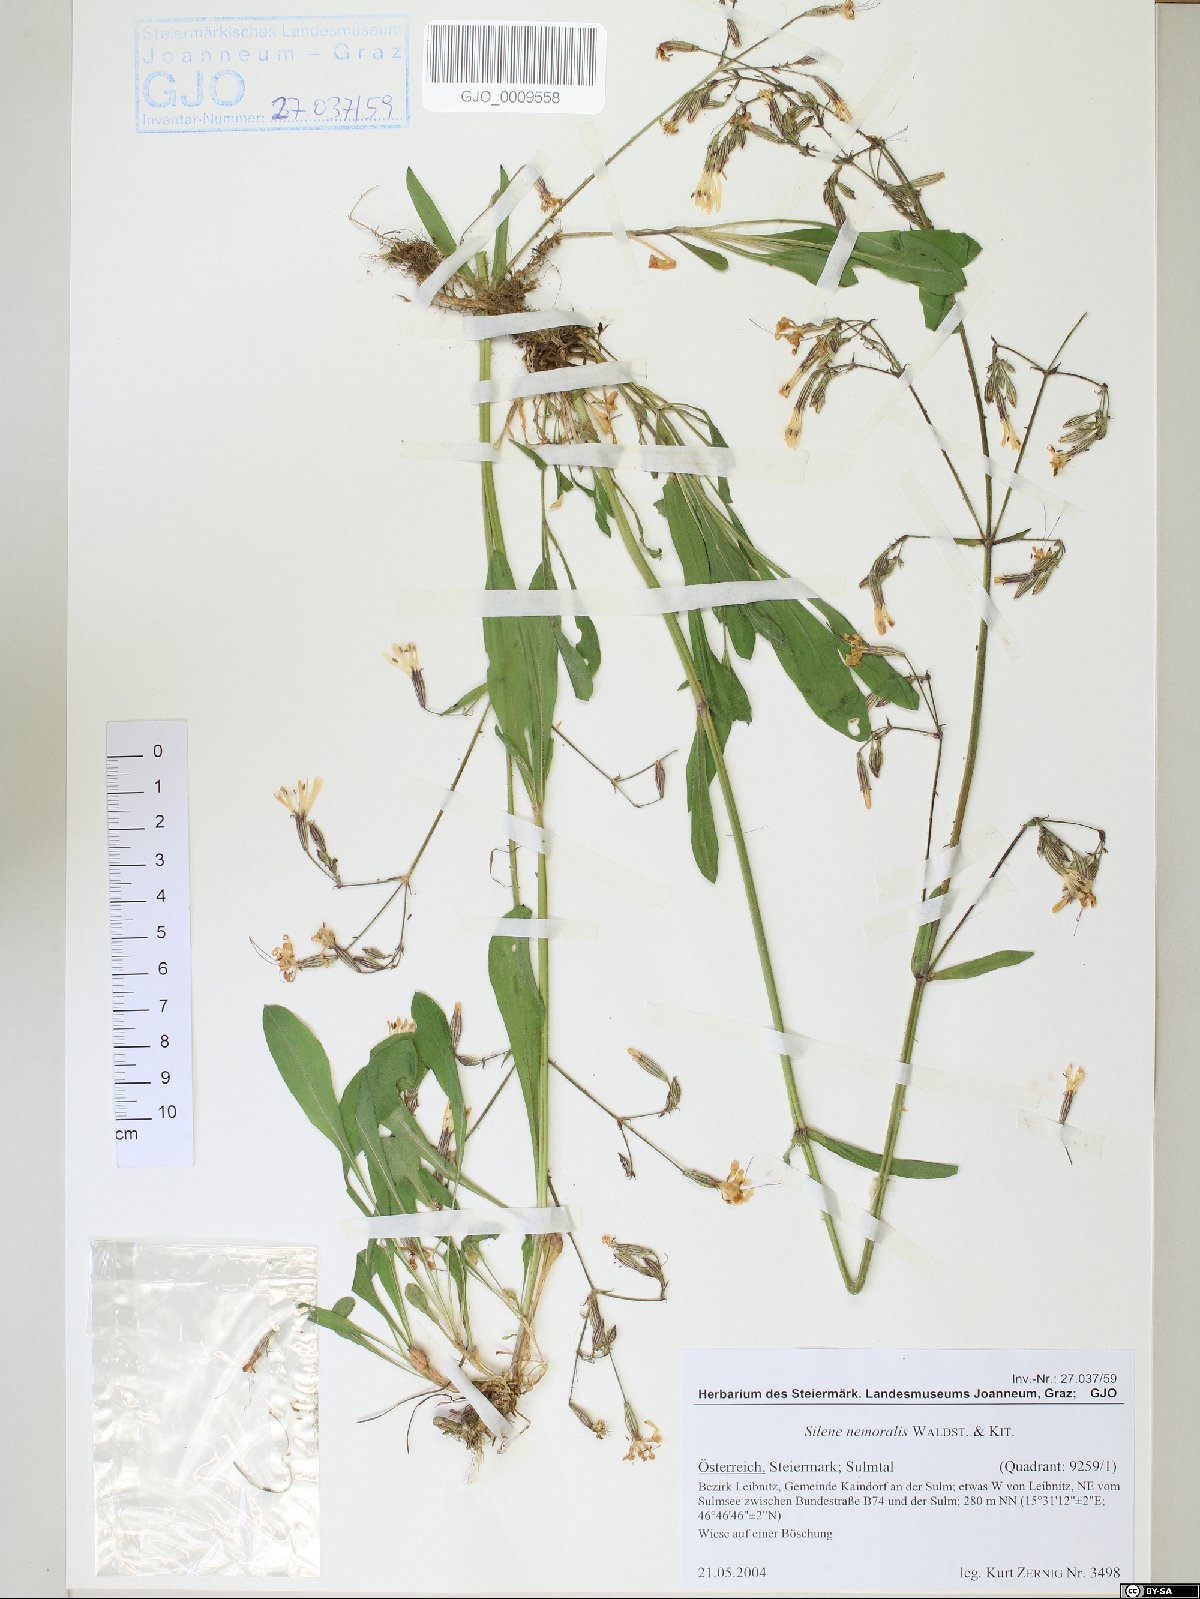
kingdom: Plantae
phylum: Tracheophyta
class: Magnoliopsida
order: Caryophyllales
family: Caryophyllaceae
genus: Silene
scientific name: Silene nemoralis
